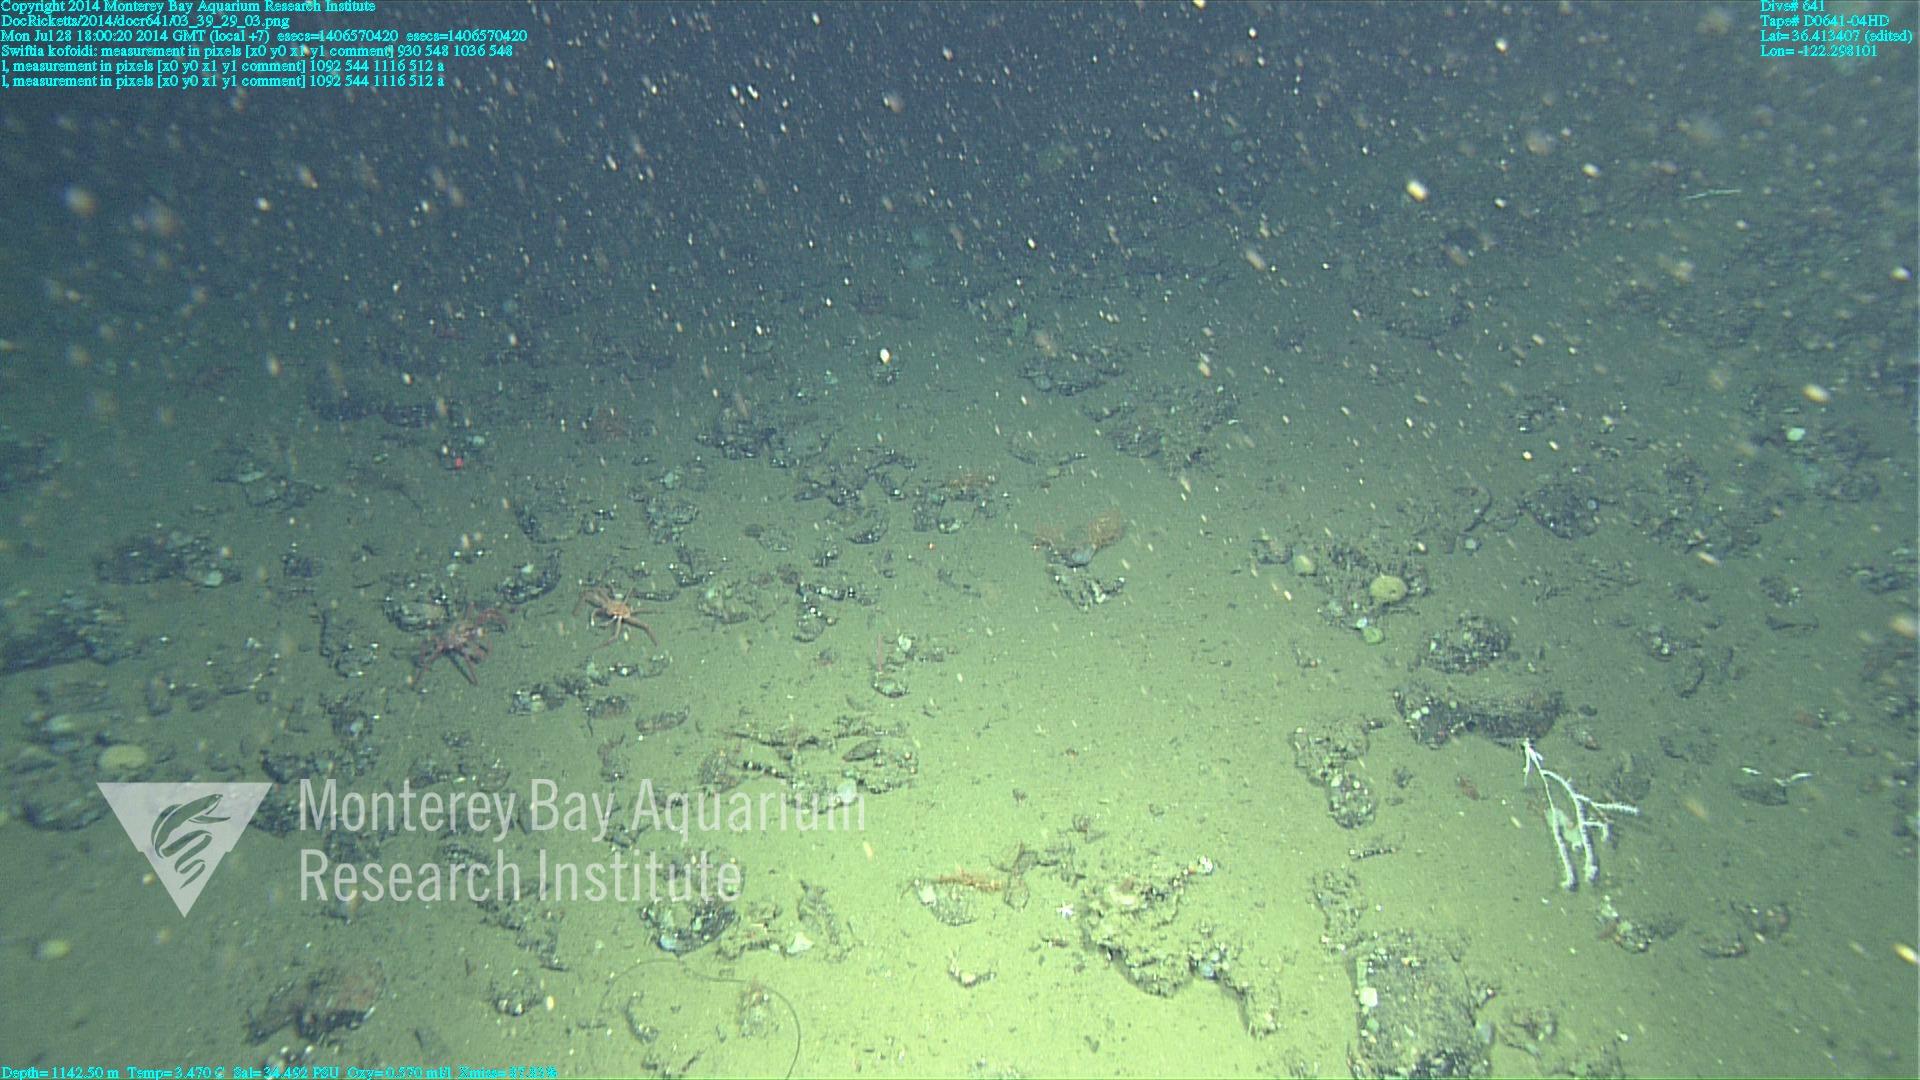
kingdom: Animalia
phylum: Cnidaria
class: Anthozoa
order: Malacalcyonacea
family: Gorgoniidae
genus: Callistephanus
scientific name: Callistephanus kofoidi
